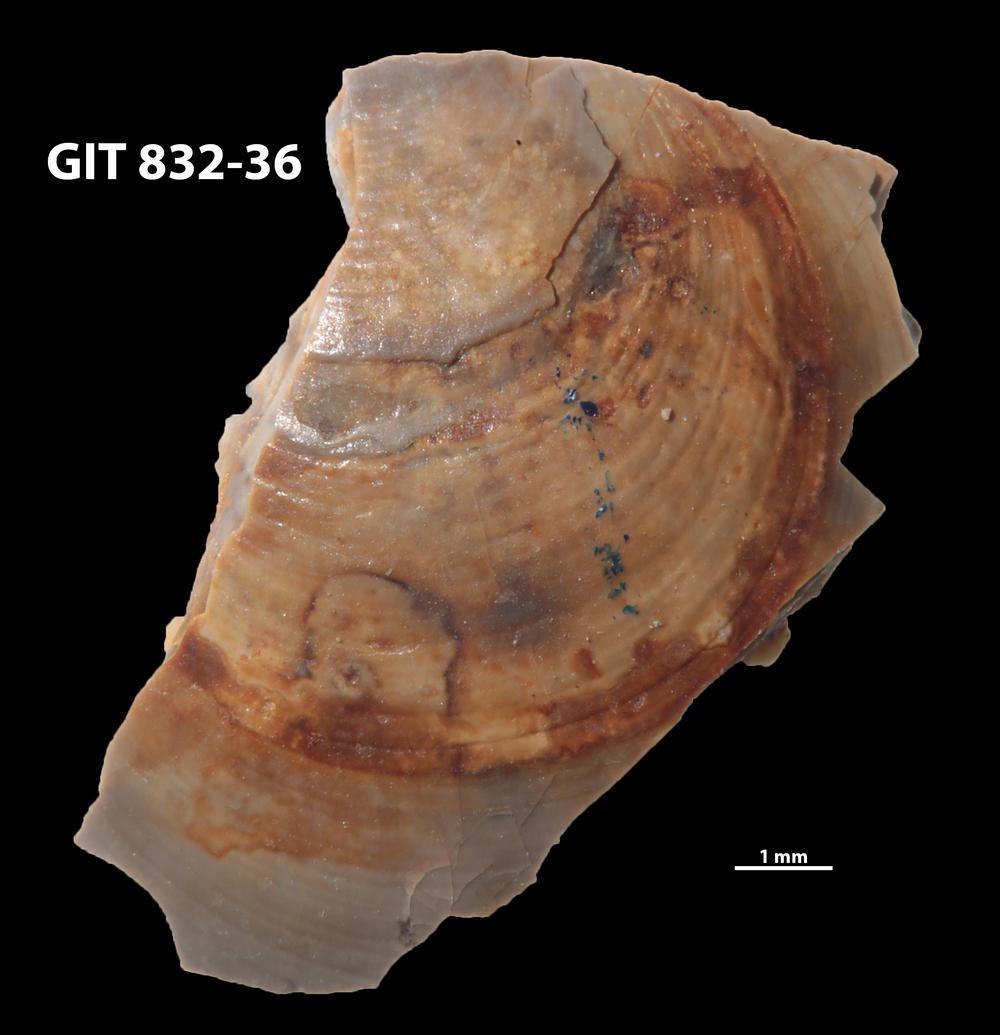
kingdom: Animalia
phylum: Porifera
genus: Ungula
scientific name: Ungula
